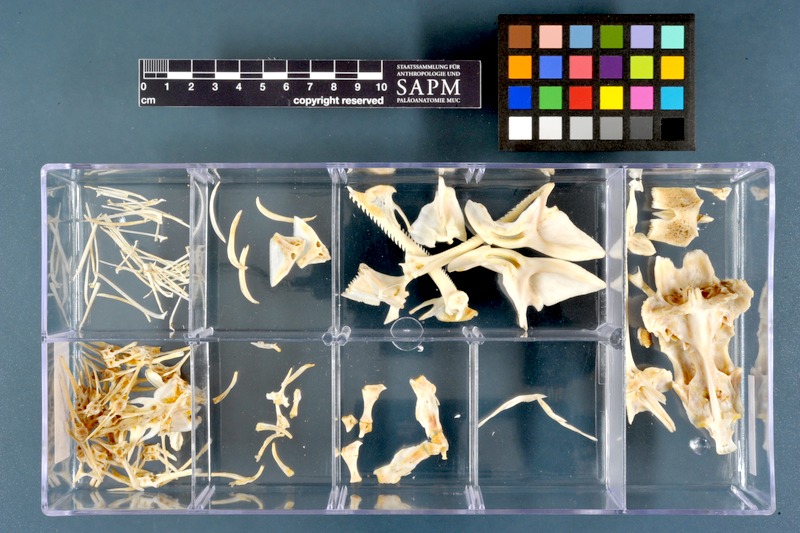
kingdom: Animalia
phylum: Chordata
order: Siluriformes
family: Mochokidae
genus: Synodontis
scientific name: Synodontis serratus
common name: Shield-head catfish
